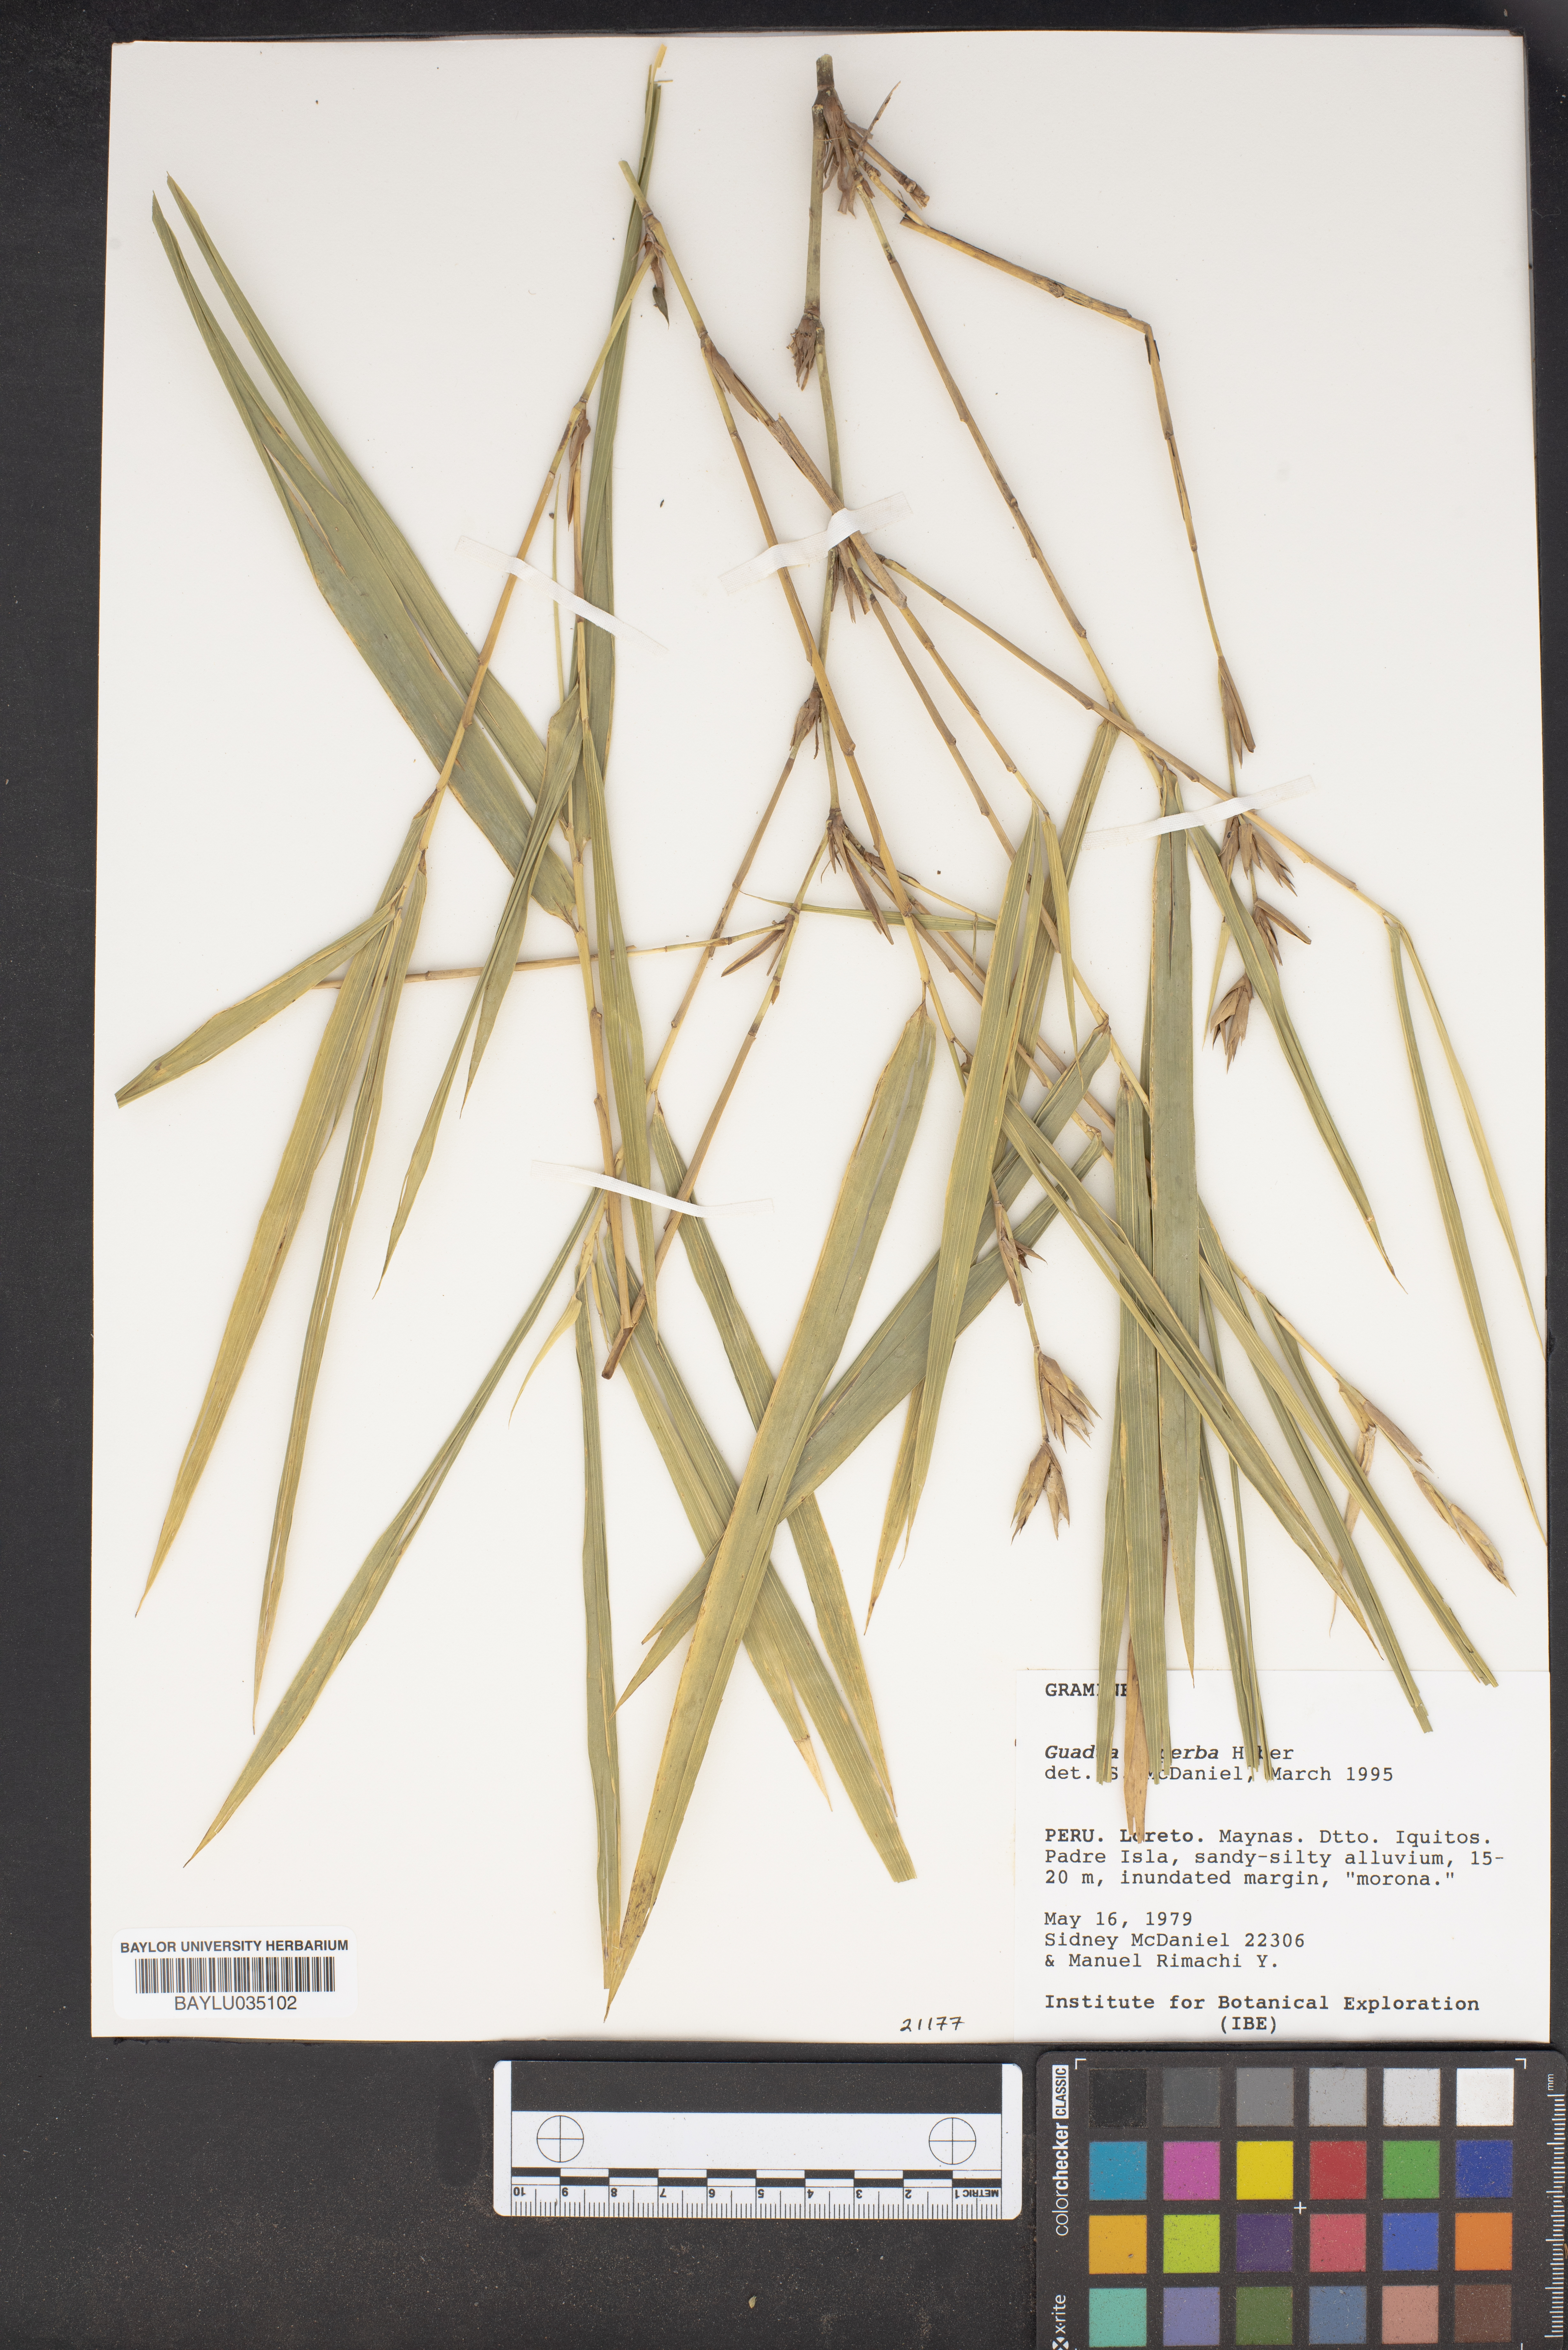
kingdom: Plantae
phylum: Tracheophyta
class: Liliopsida
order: Poales
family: Poaceae
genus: Guadua
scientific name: Guadua superba
